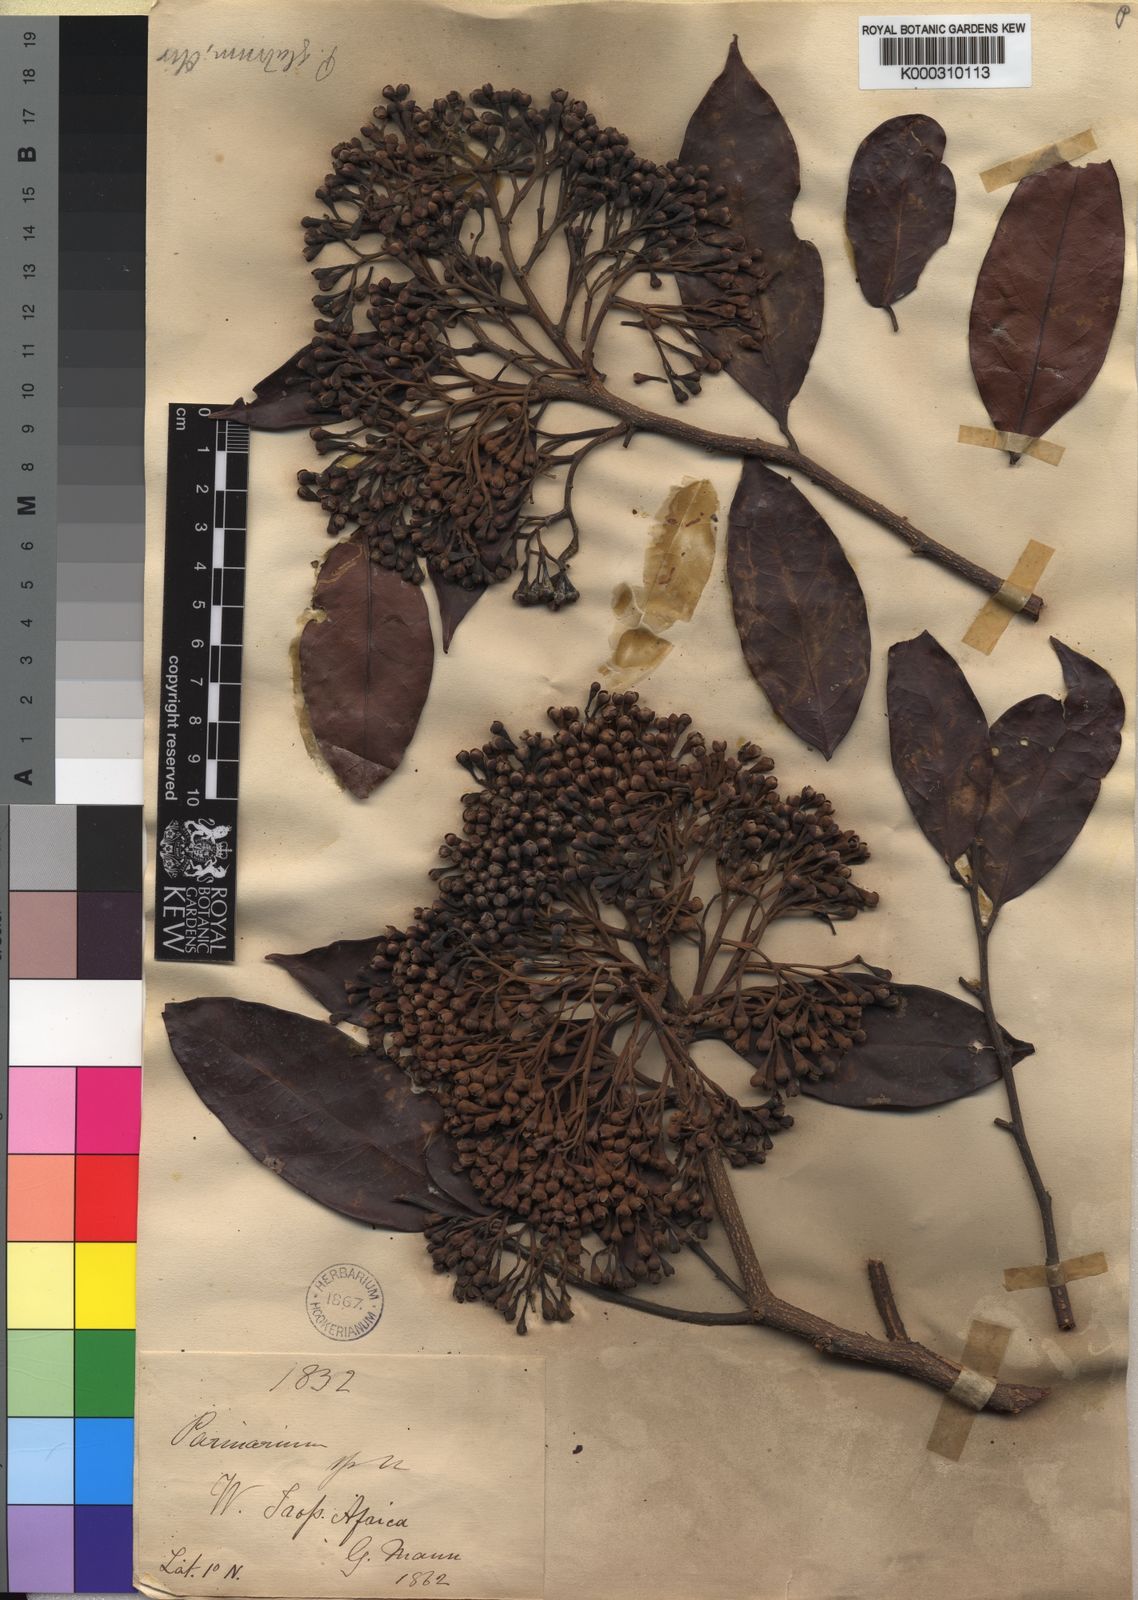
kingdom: Plantae
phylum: Tracheophyta
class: Magnoliopsida
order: Malpighiales
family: Chrysobalanaceae
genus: Maranthes
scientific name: Maranthes glabra
